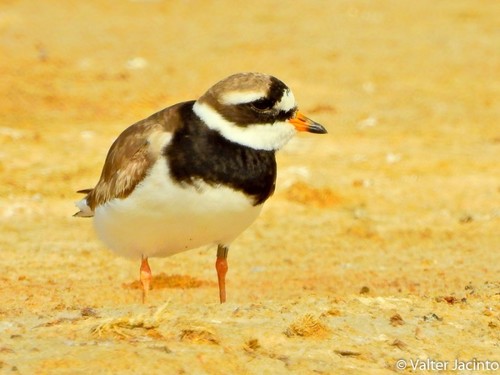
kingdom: Animalia
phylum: Chordata
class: Aves
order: Charadriiformes
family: Charadriidae
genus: Charadrius
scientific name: Charadrius hiaticula
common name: Common ringed plover
